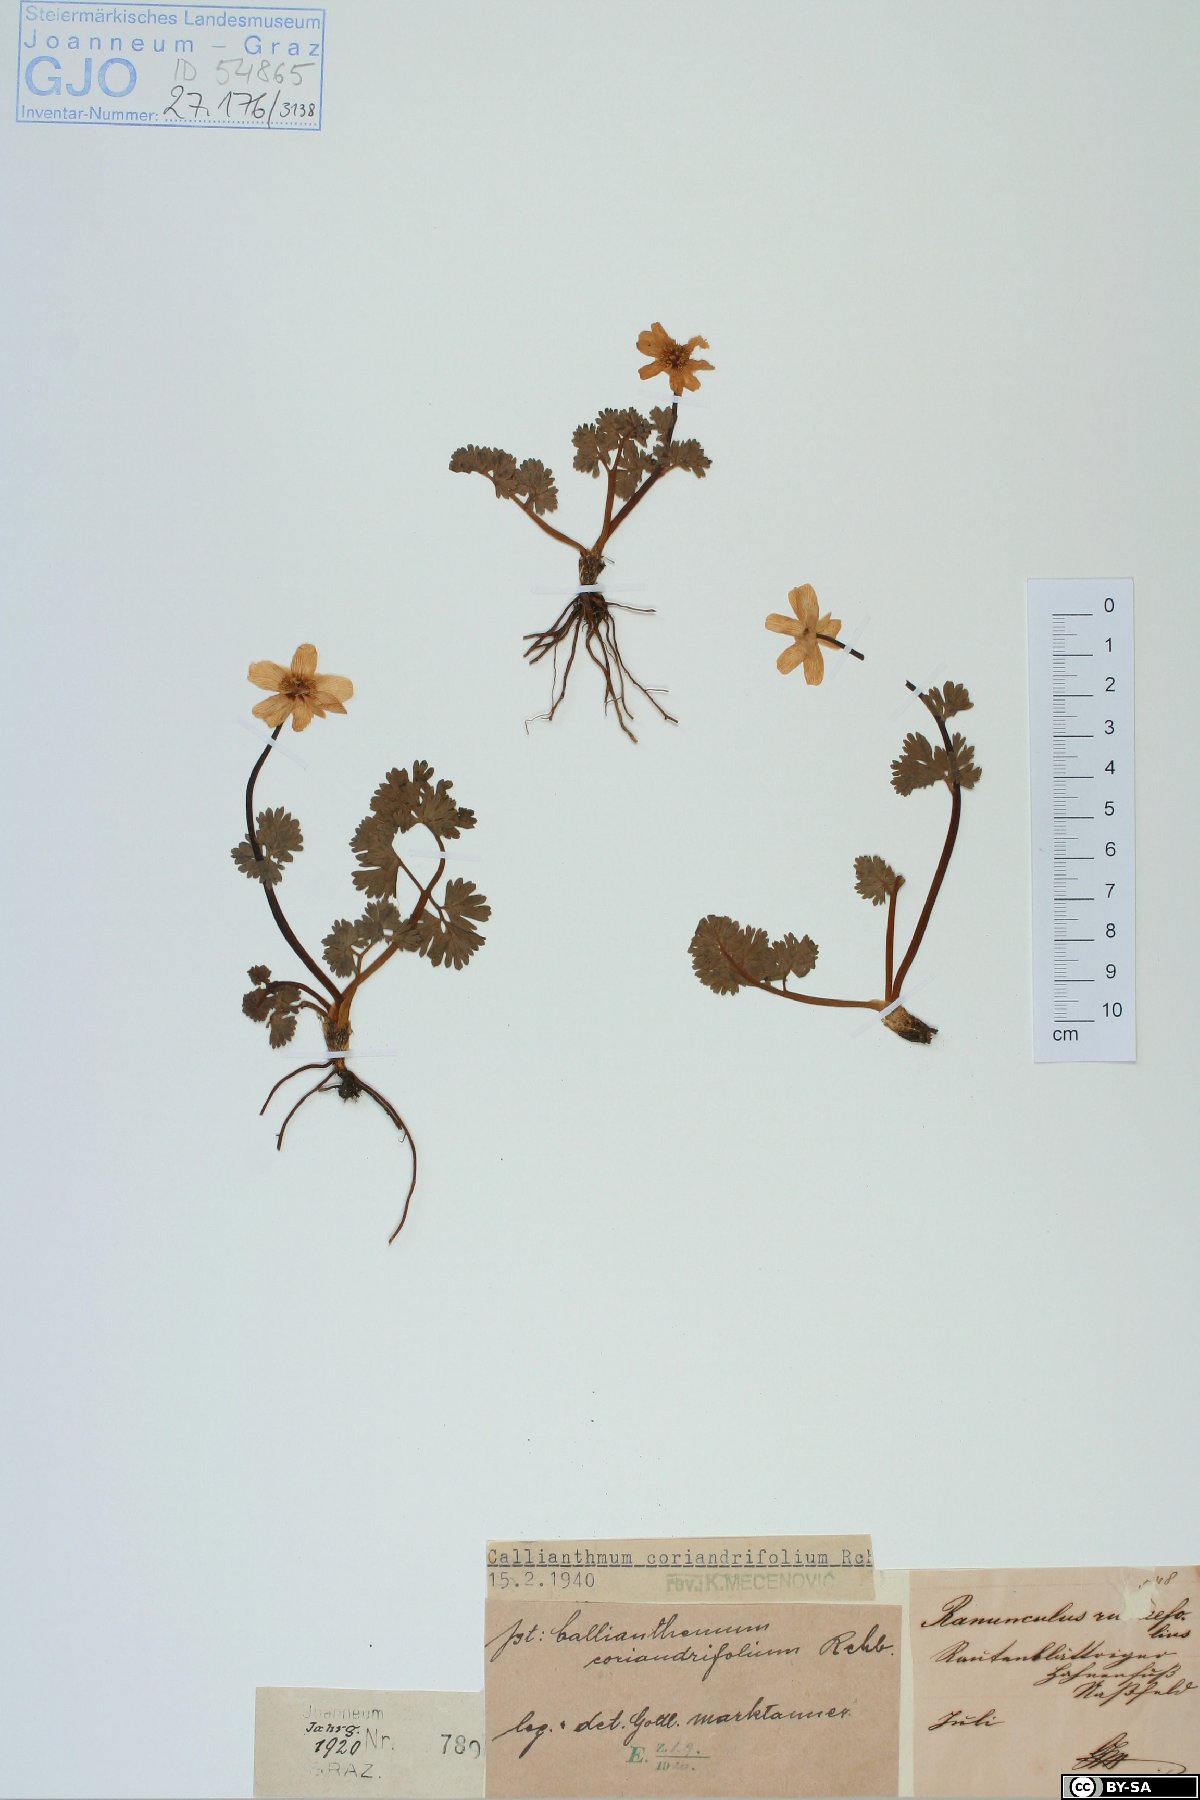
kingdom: Plantae
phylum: Tracheophyta
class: Magnoliopsida
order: Ranunculales
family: Ranunculaceae
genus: Callianthemum
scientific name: Callianthemum coriandrifolium
